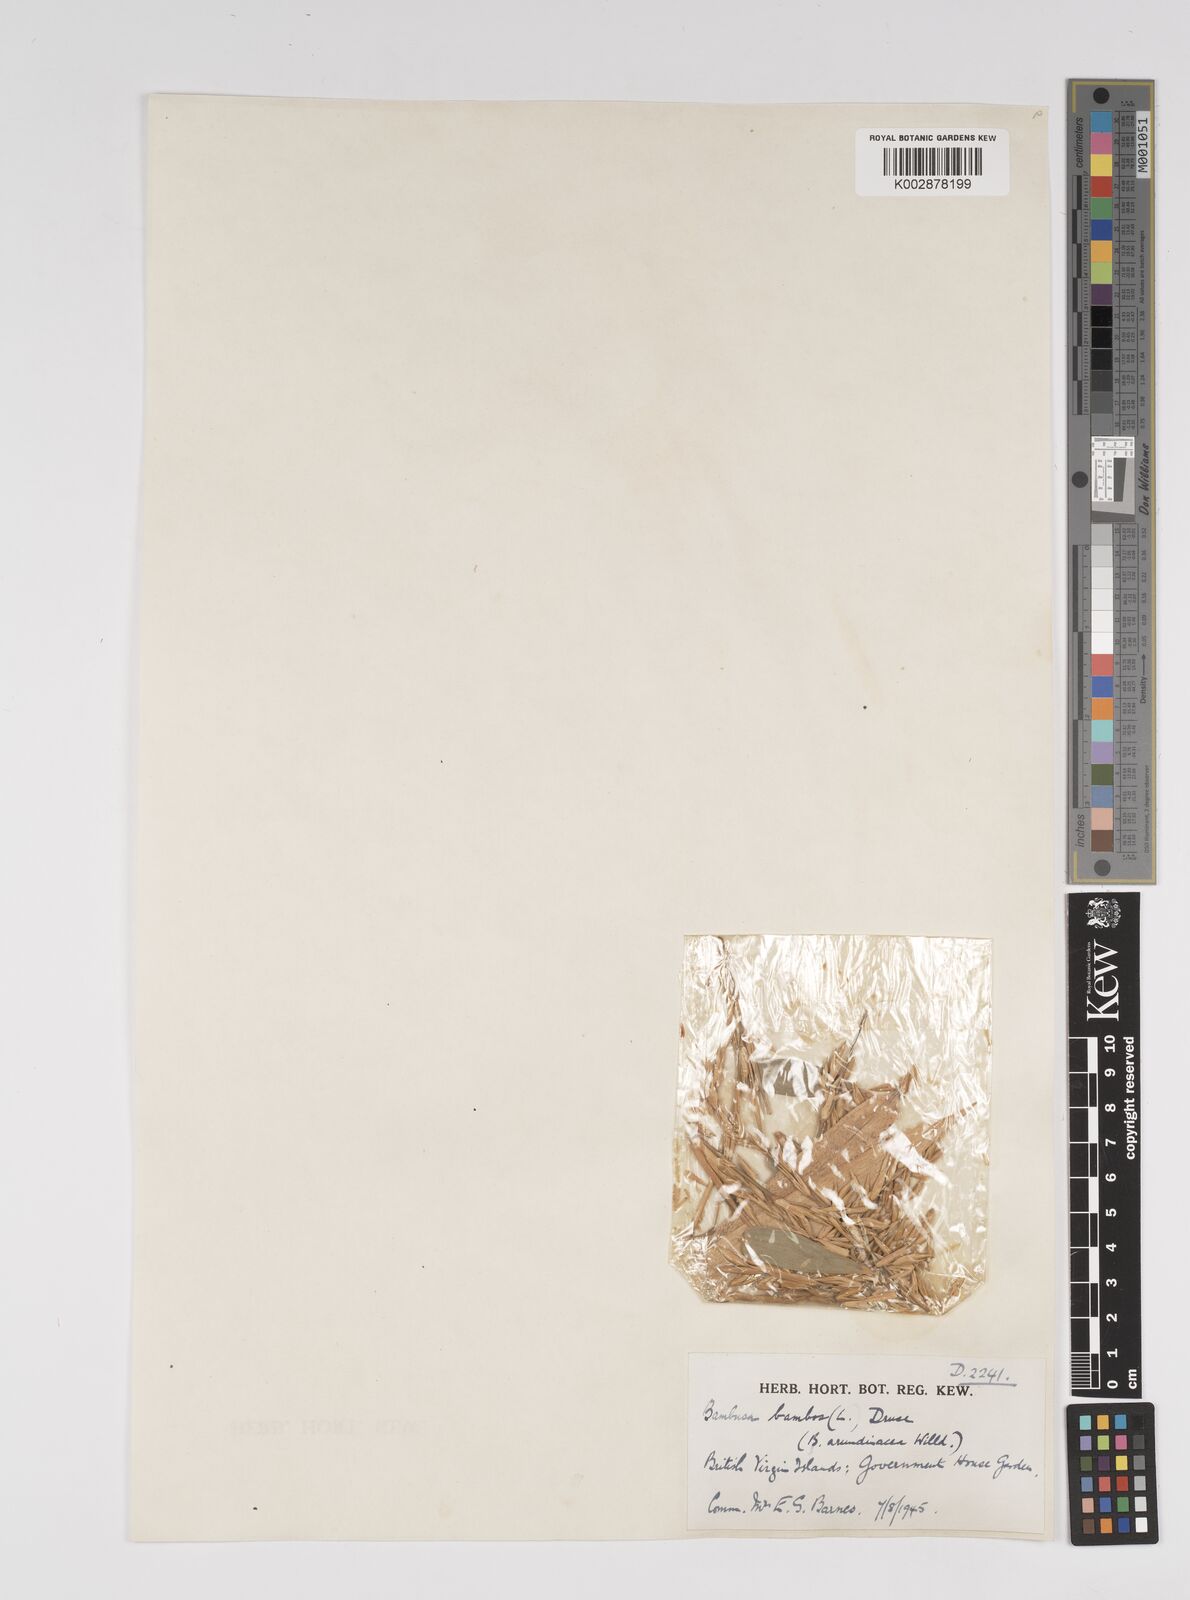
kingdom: Plantae
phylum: Tracheophyta
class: Liliopsida
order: Poales
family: Poaceae
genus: Bambusa
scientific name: Bambusa bambos
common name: Indian thorny bamboo
